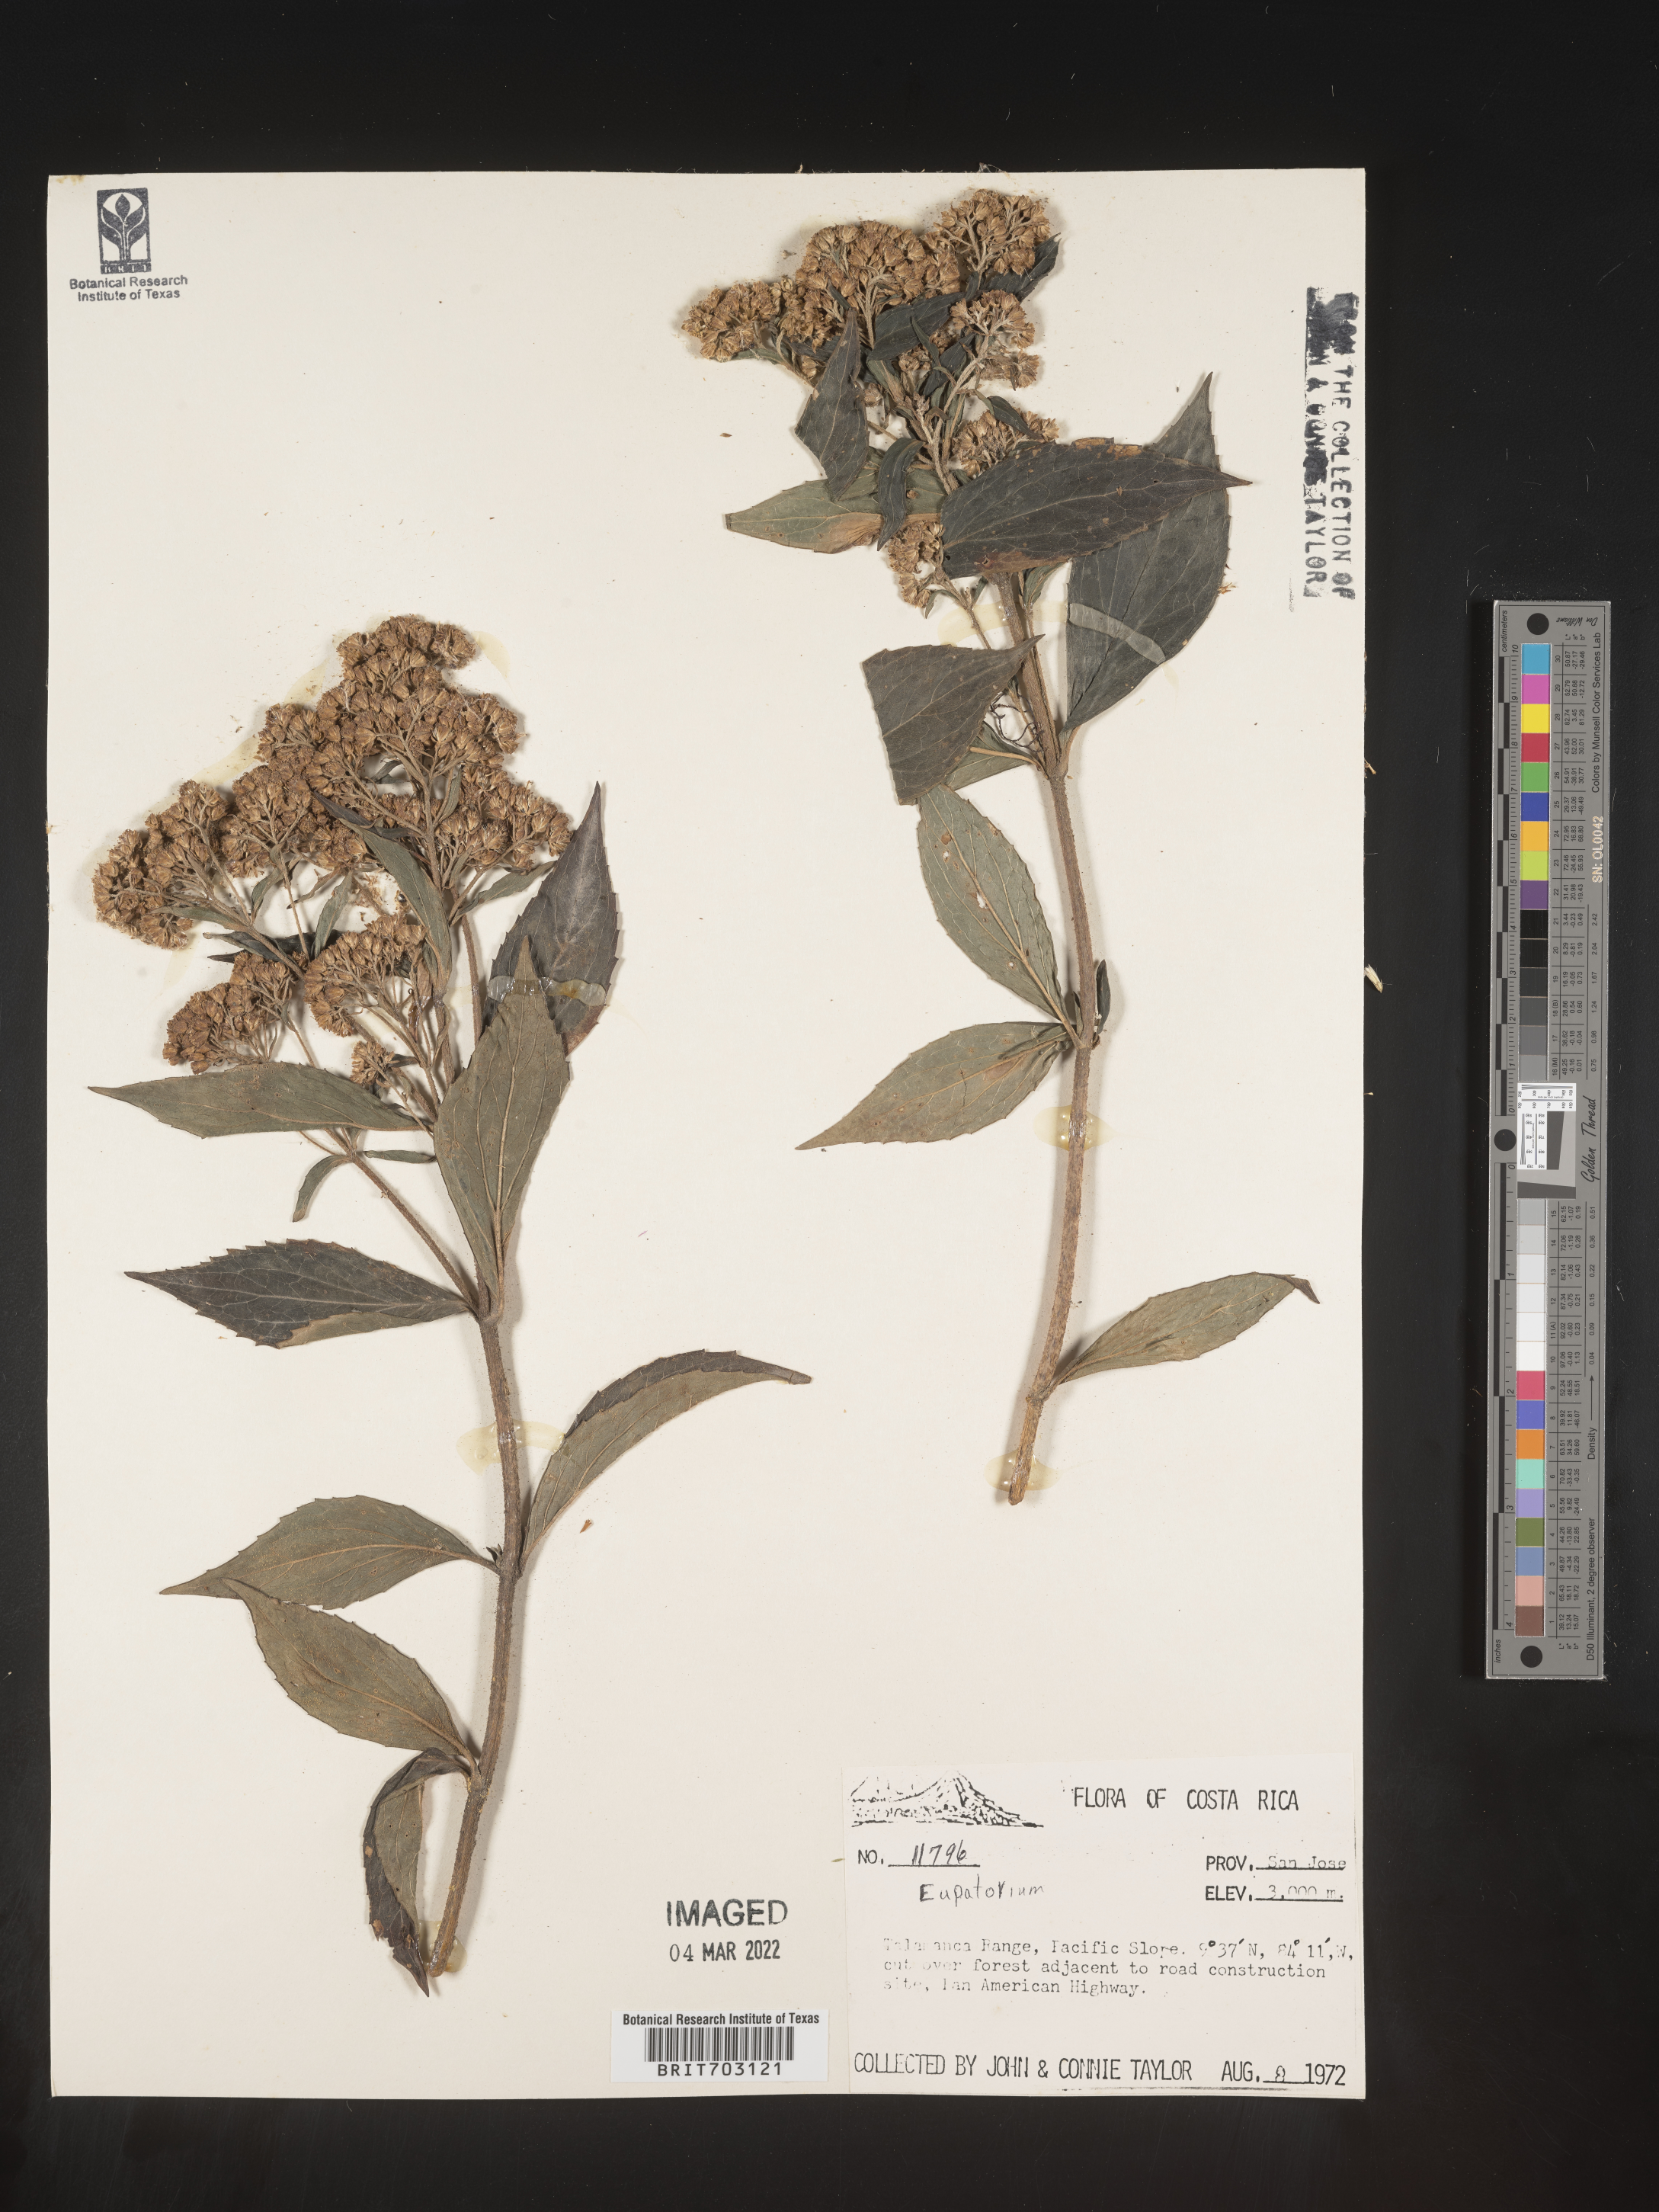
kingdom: Plantae
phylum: Tracheophyta
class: Magnoliopsida
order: Asterales
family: Asteraceae
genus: Eupatorium
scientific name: Eupatorium
